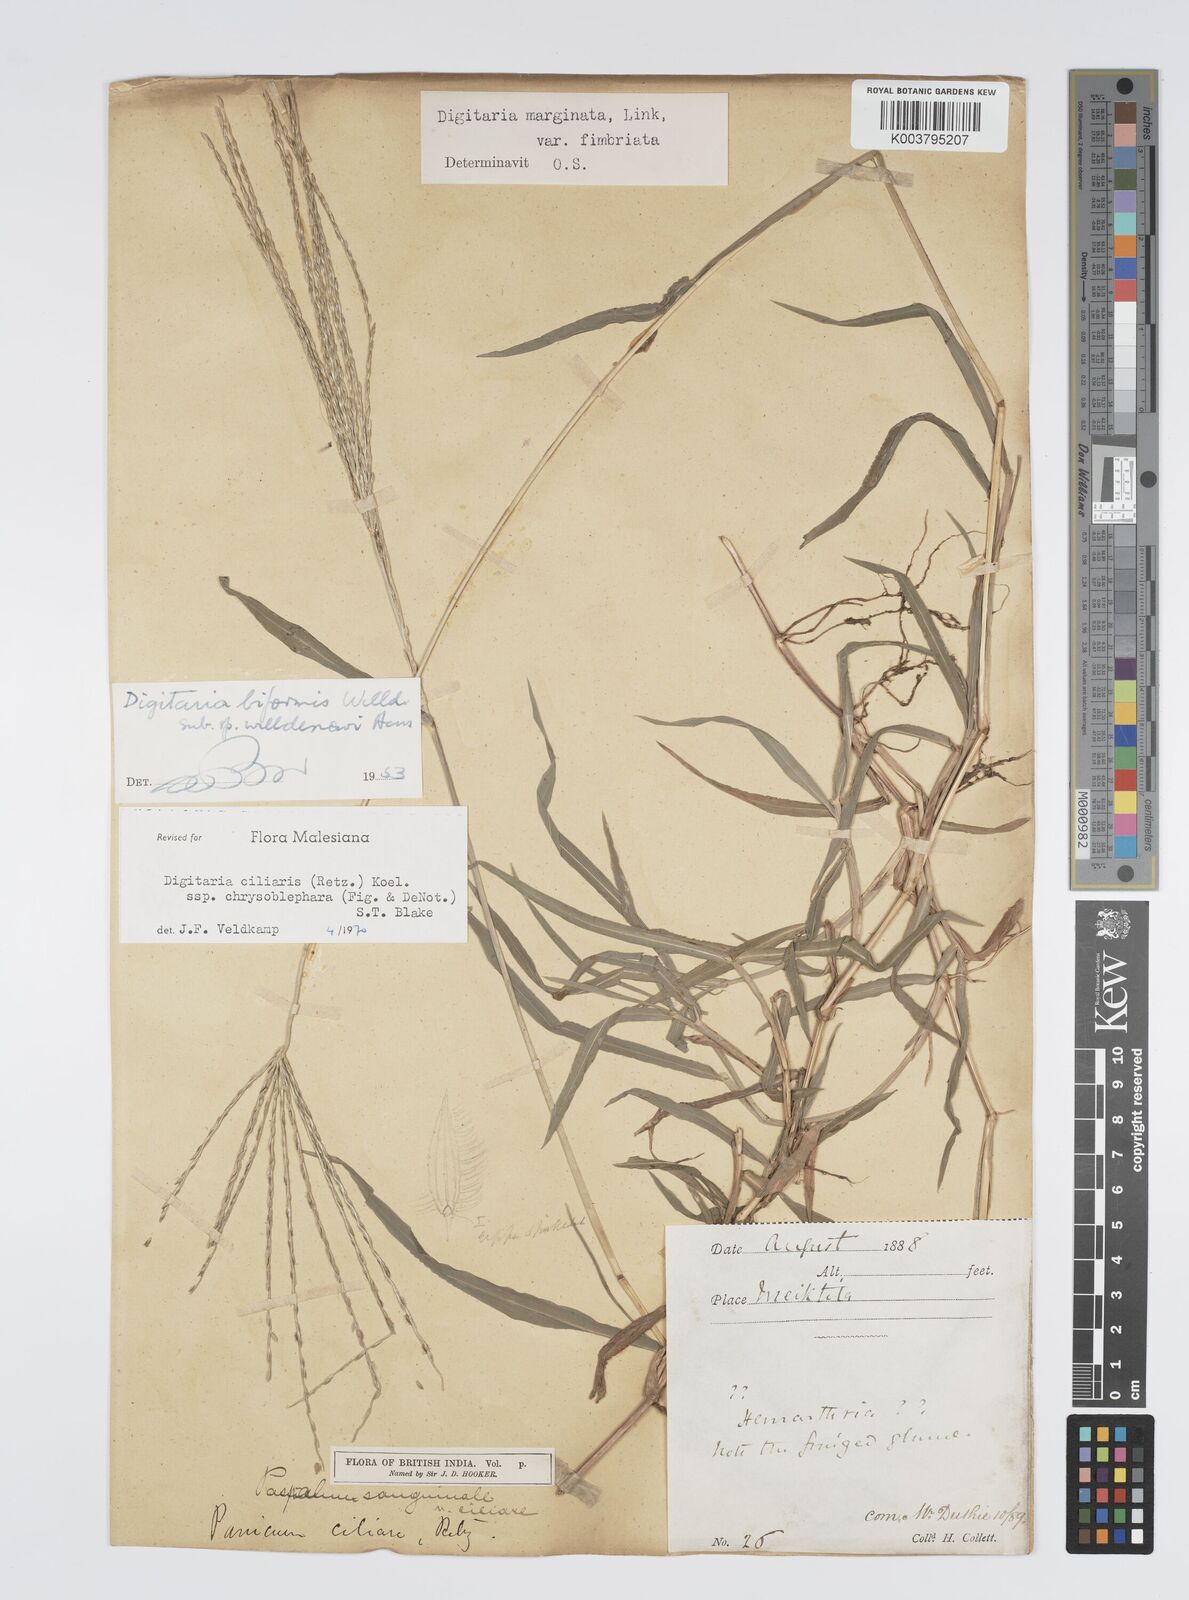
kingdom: Plantae
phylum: Tracheophyta
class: Liliopsida
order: Poales
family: Poaceae
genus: Digitaria
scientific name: Digitaria ciliaris
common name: Tropical finger-grass
